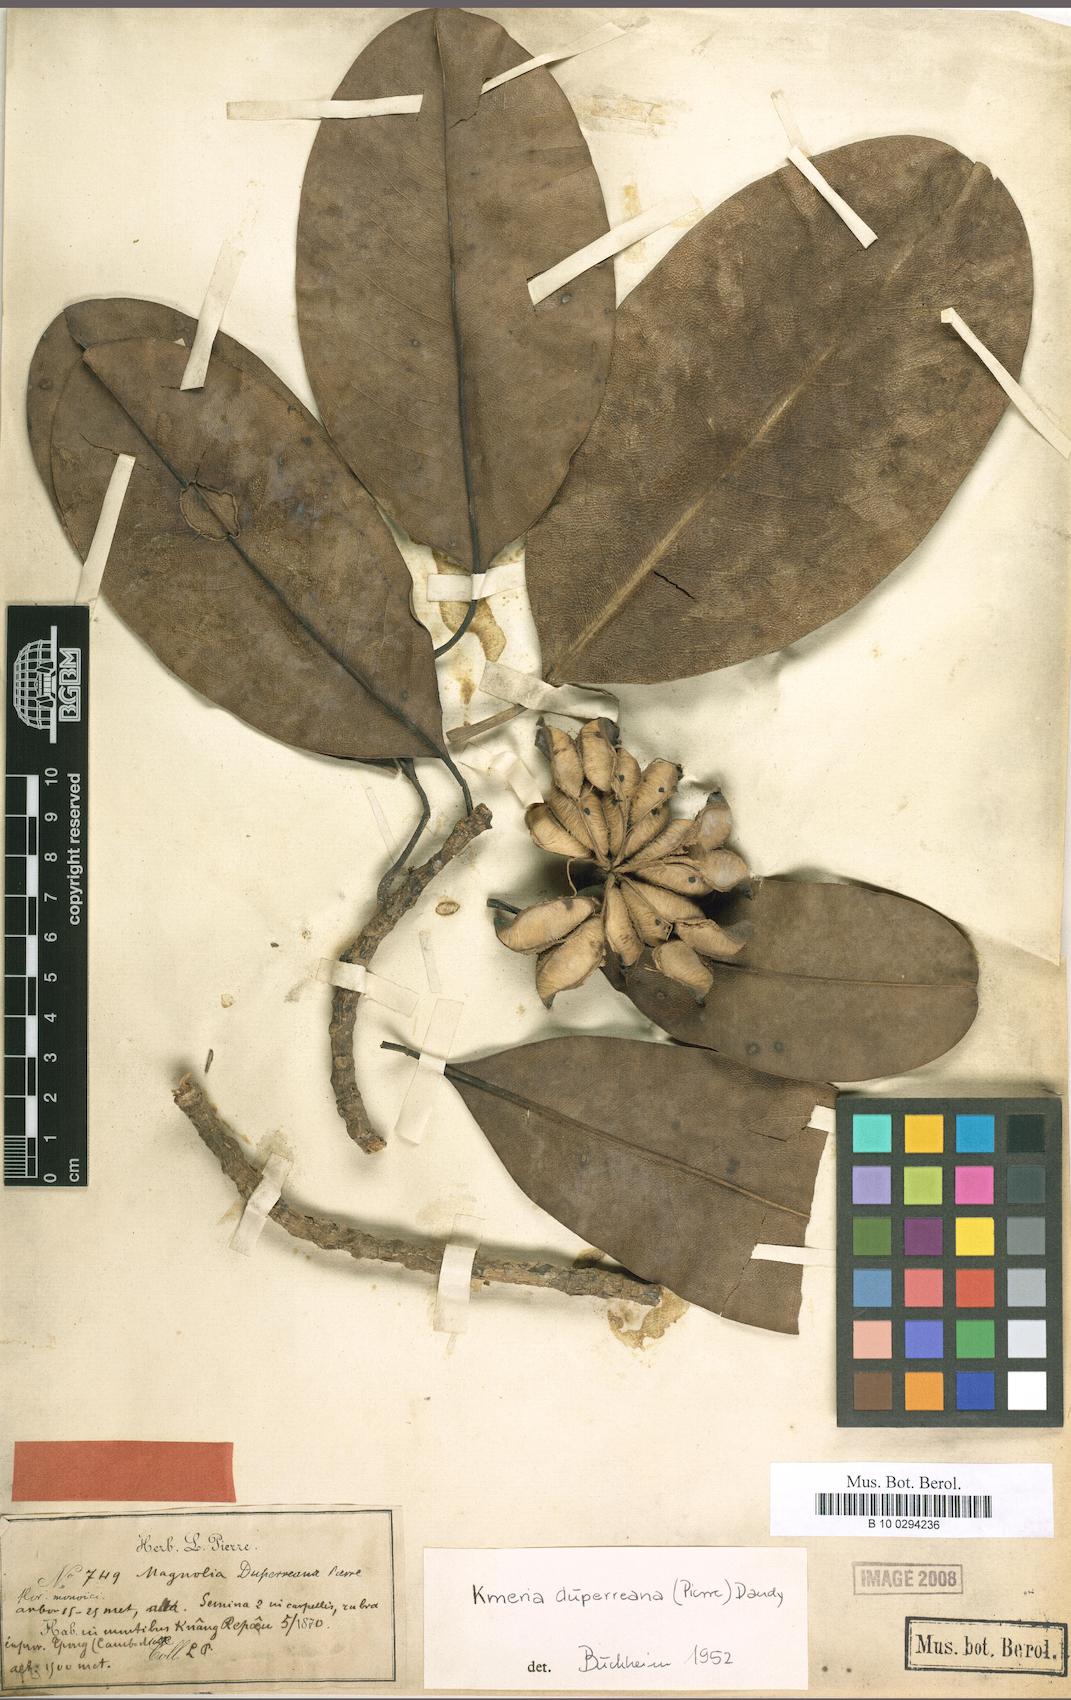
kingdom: Plantae
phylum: Tracheophyta
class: Magnoliopsida
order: Magnoliales
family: Magnoliaceae
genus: Magnolia
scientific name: Magnolia duperreana
